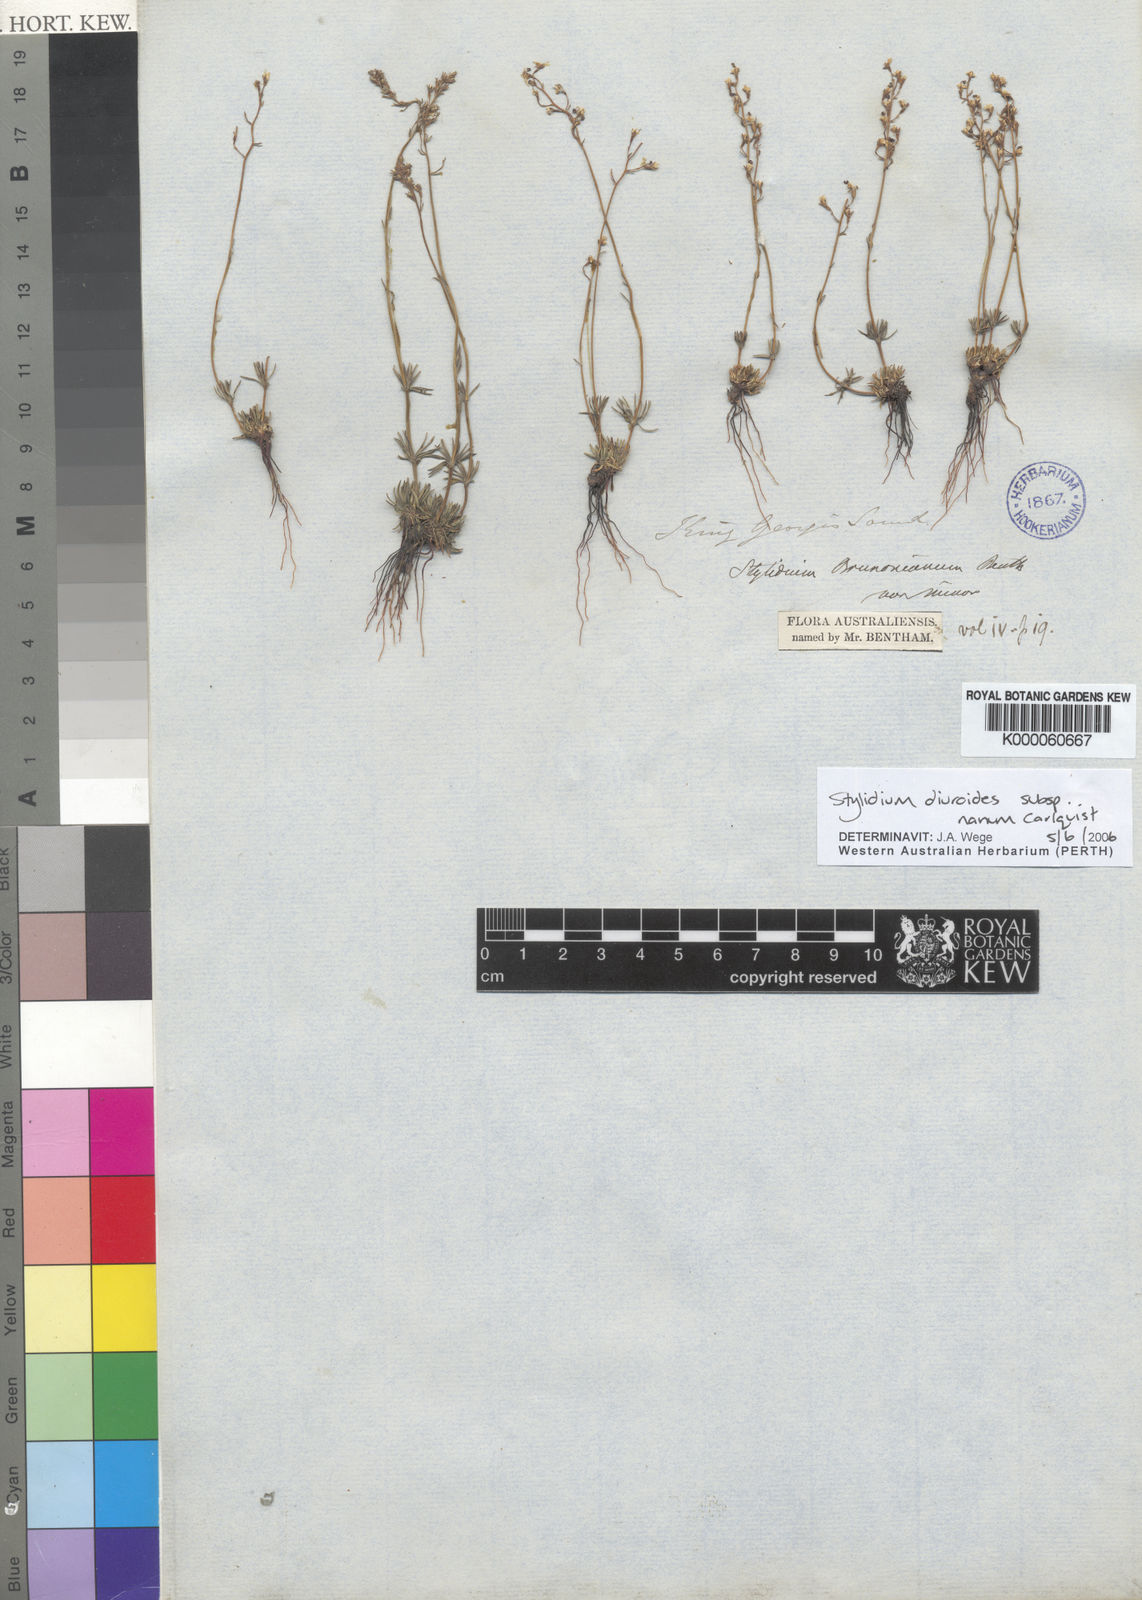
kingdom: Plantae
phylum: Tracheophyta
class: Magnoliopsida
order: Asterales
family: Stylidiaceae
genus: Stylidium
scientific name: Stylidium diuroides
